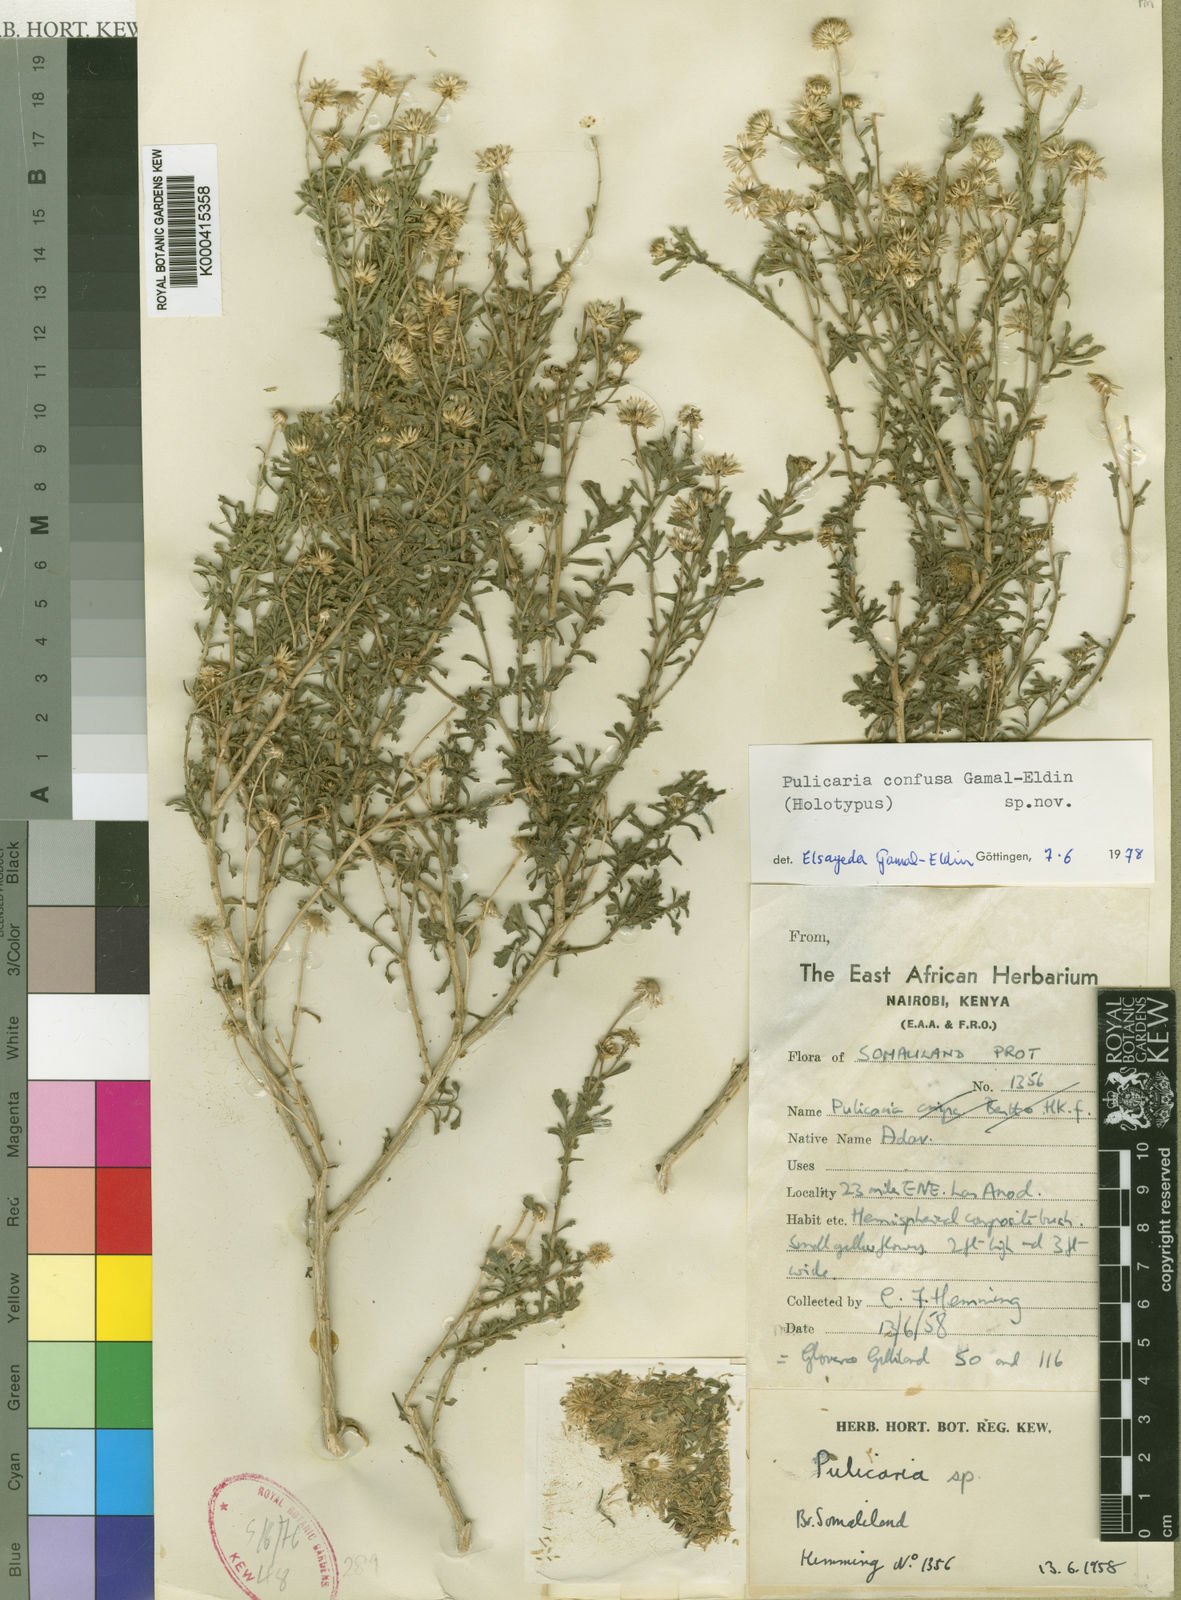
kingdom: Plantae
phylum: Tracheophyta
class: Magnoliopsida
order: Asterales
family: Asteraceae
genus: Pulicaria
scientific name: Pulicaria confusa
